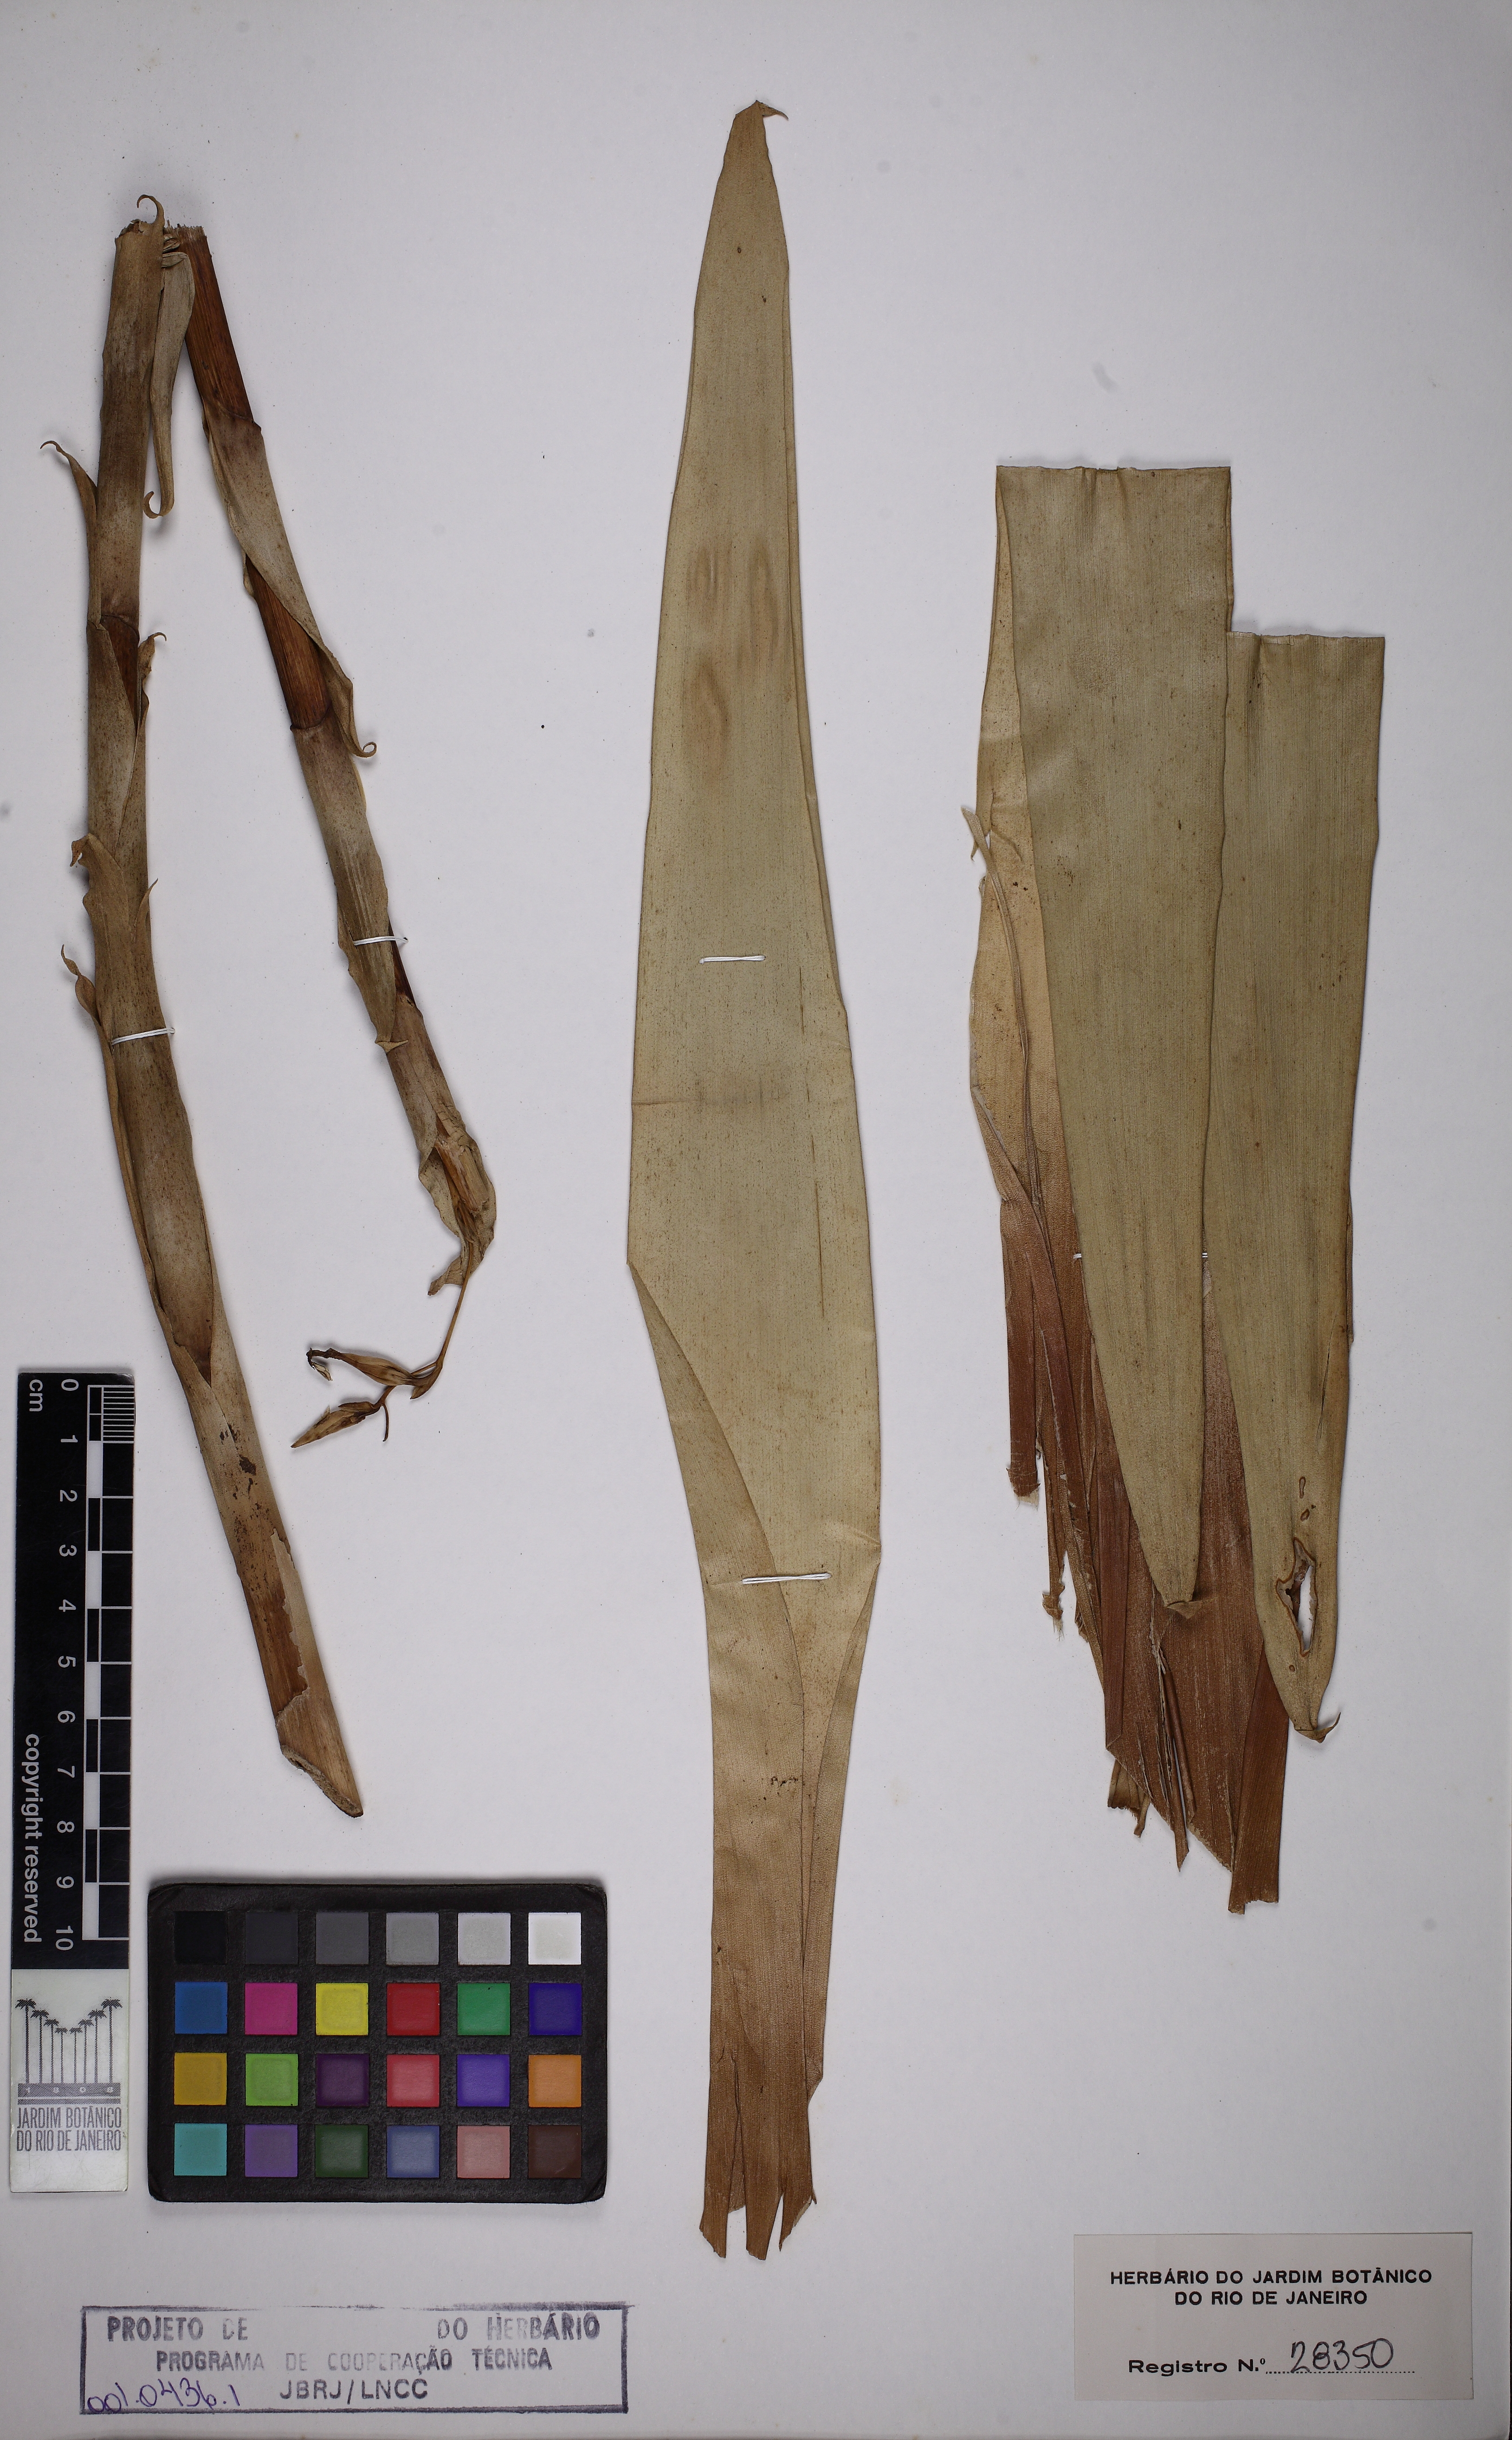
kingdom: Plantae
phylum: Tracheophyta
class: Liliopsida
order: Poales
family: Bromeliaceae
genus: Vriesea
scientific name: Vriesea leptantha
